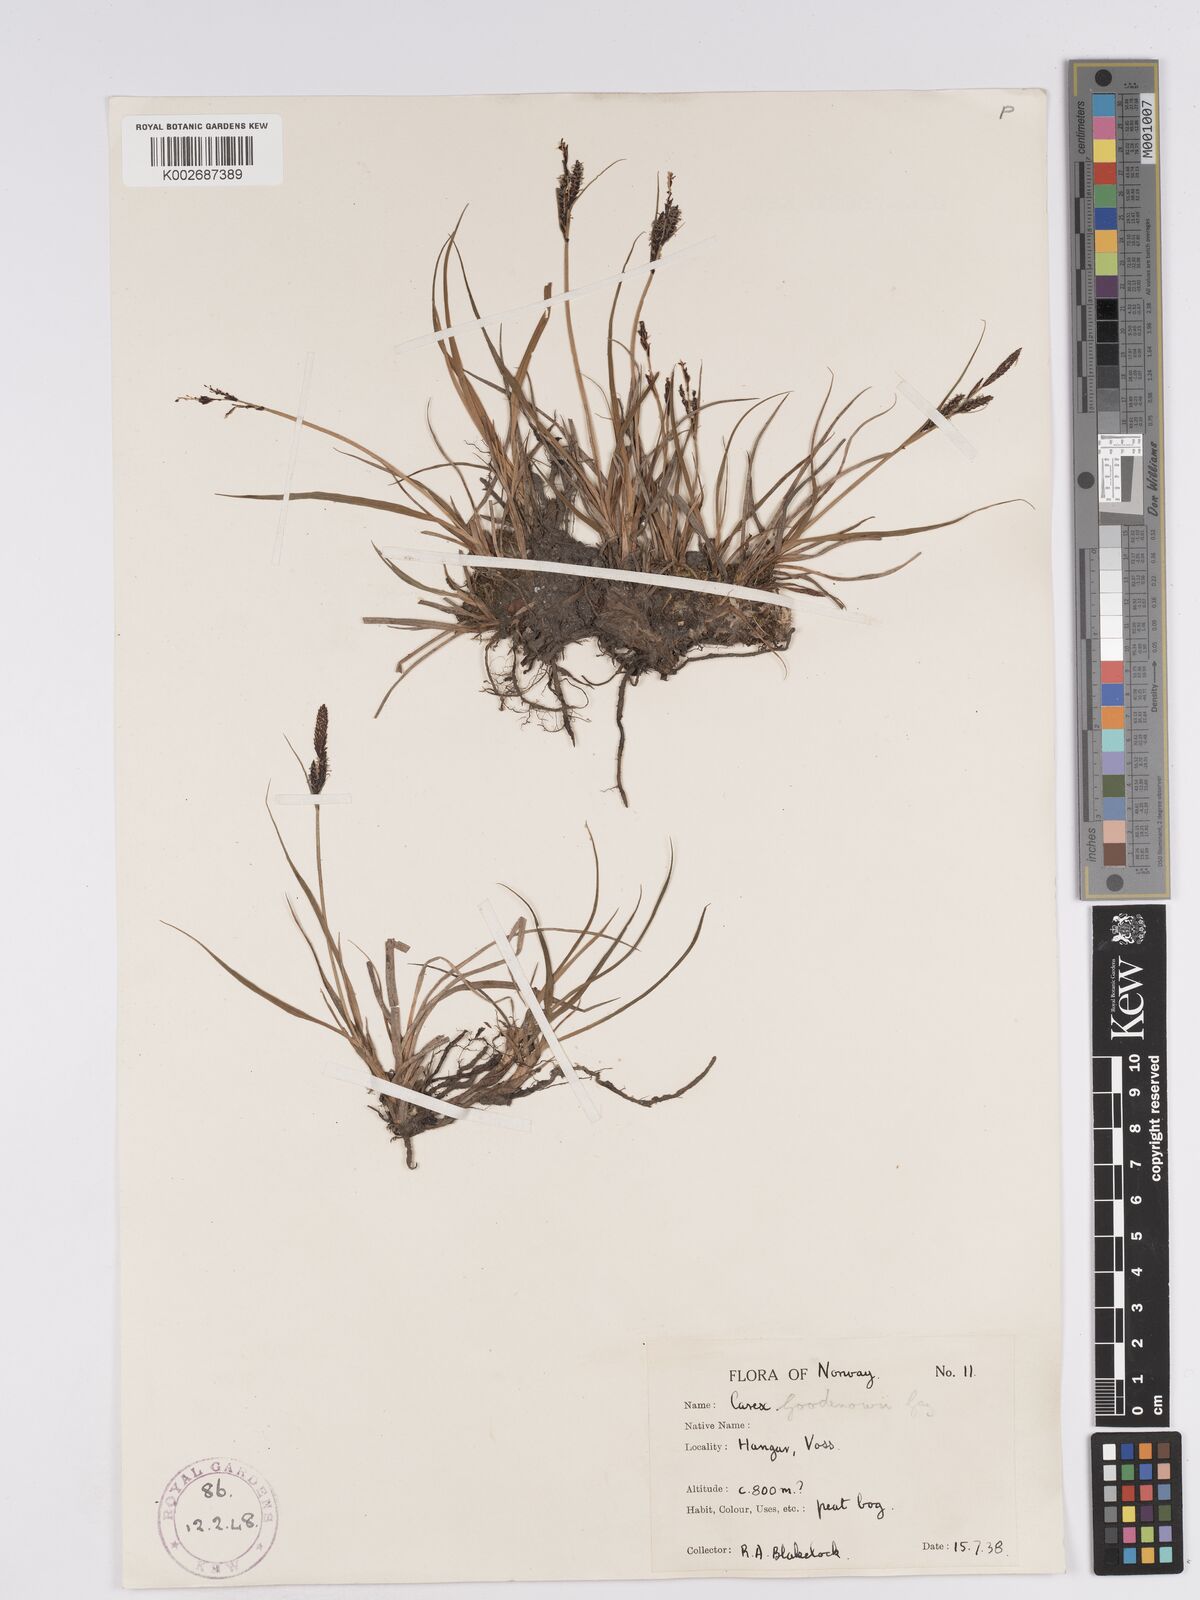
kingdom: Plantae
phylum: Tracheophyta
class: Liliopsida
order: Poales
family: Cyperaceae
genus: Carex
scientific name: Carex nigra
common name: Common sedge
